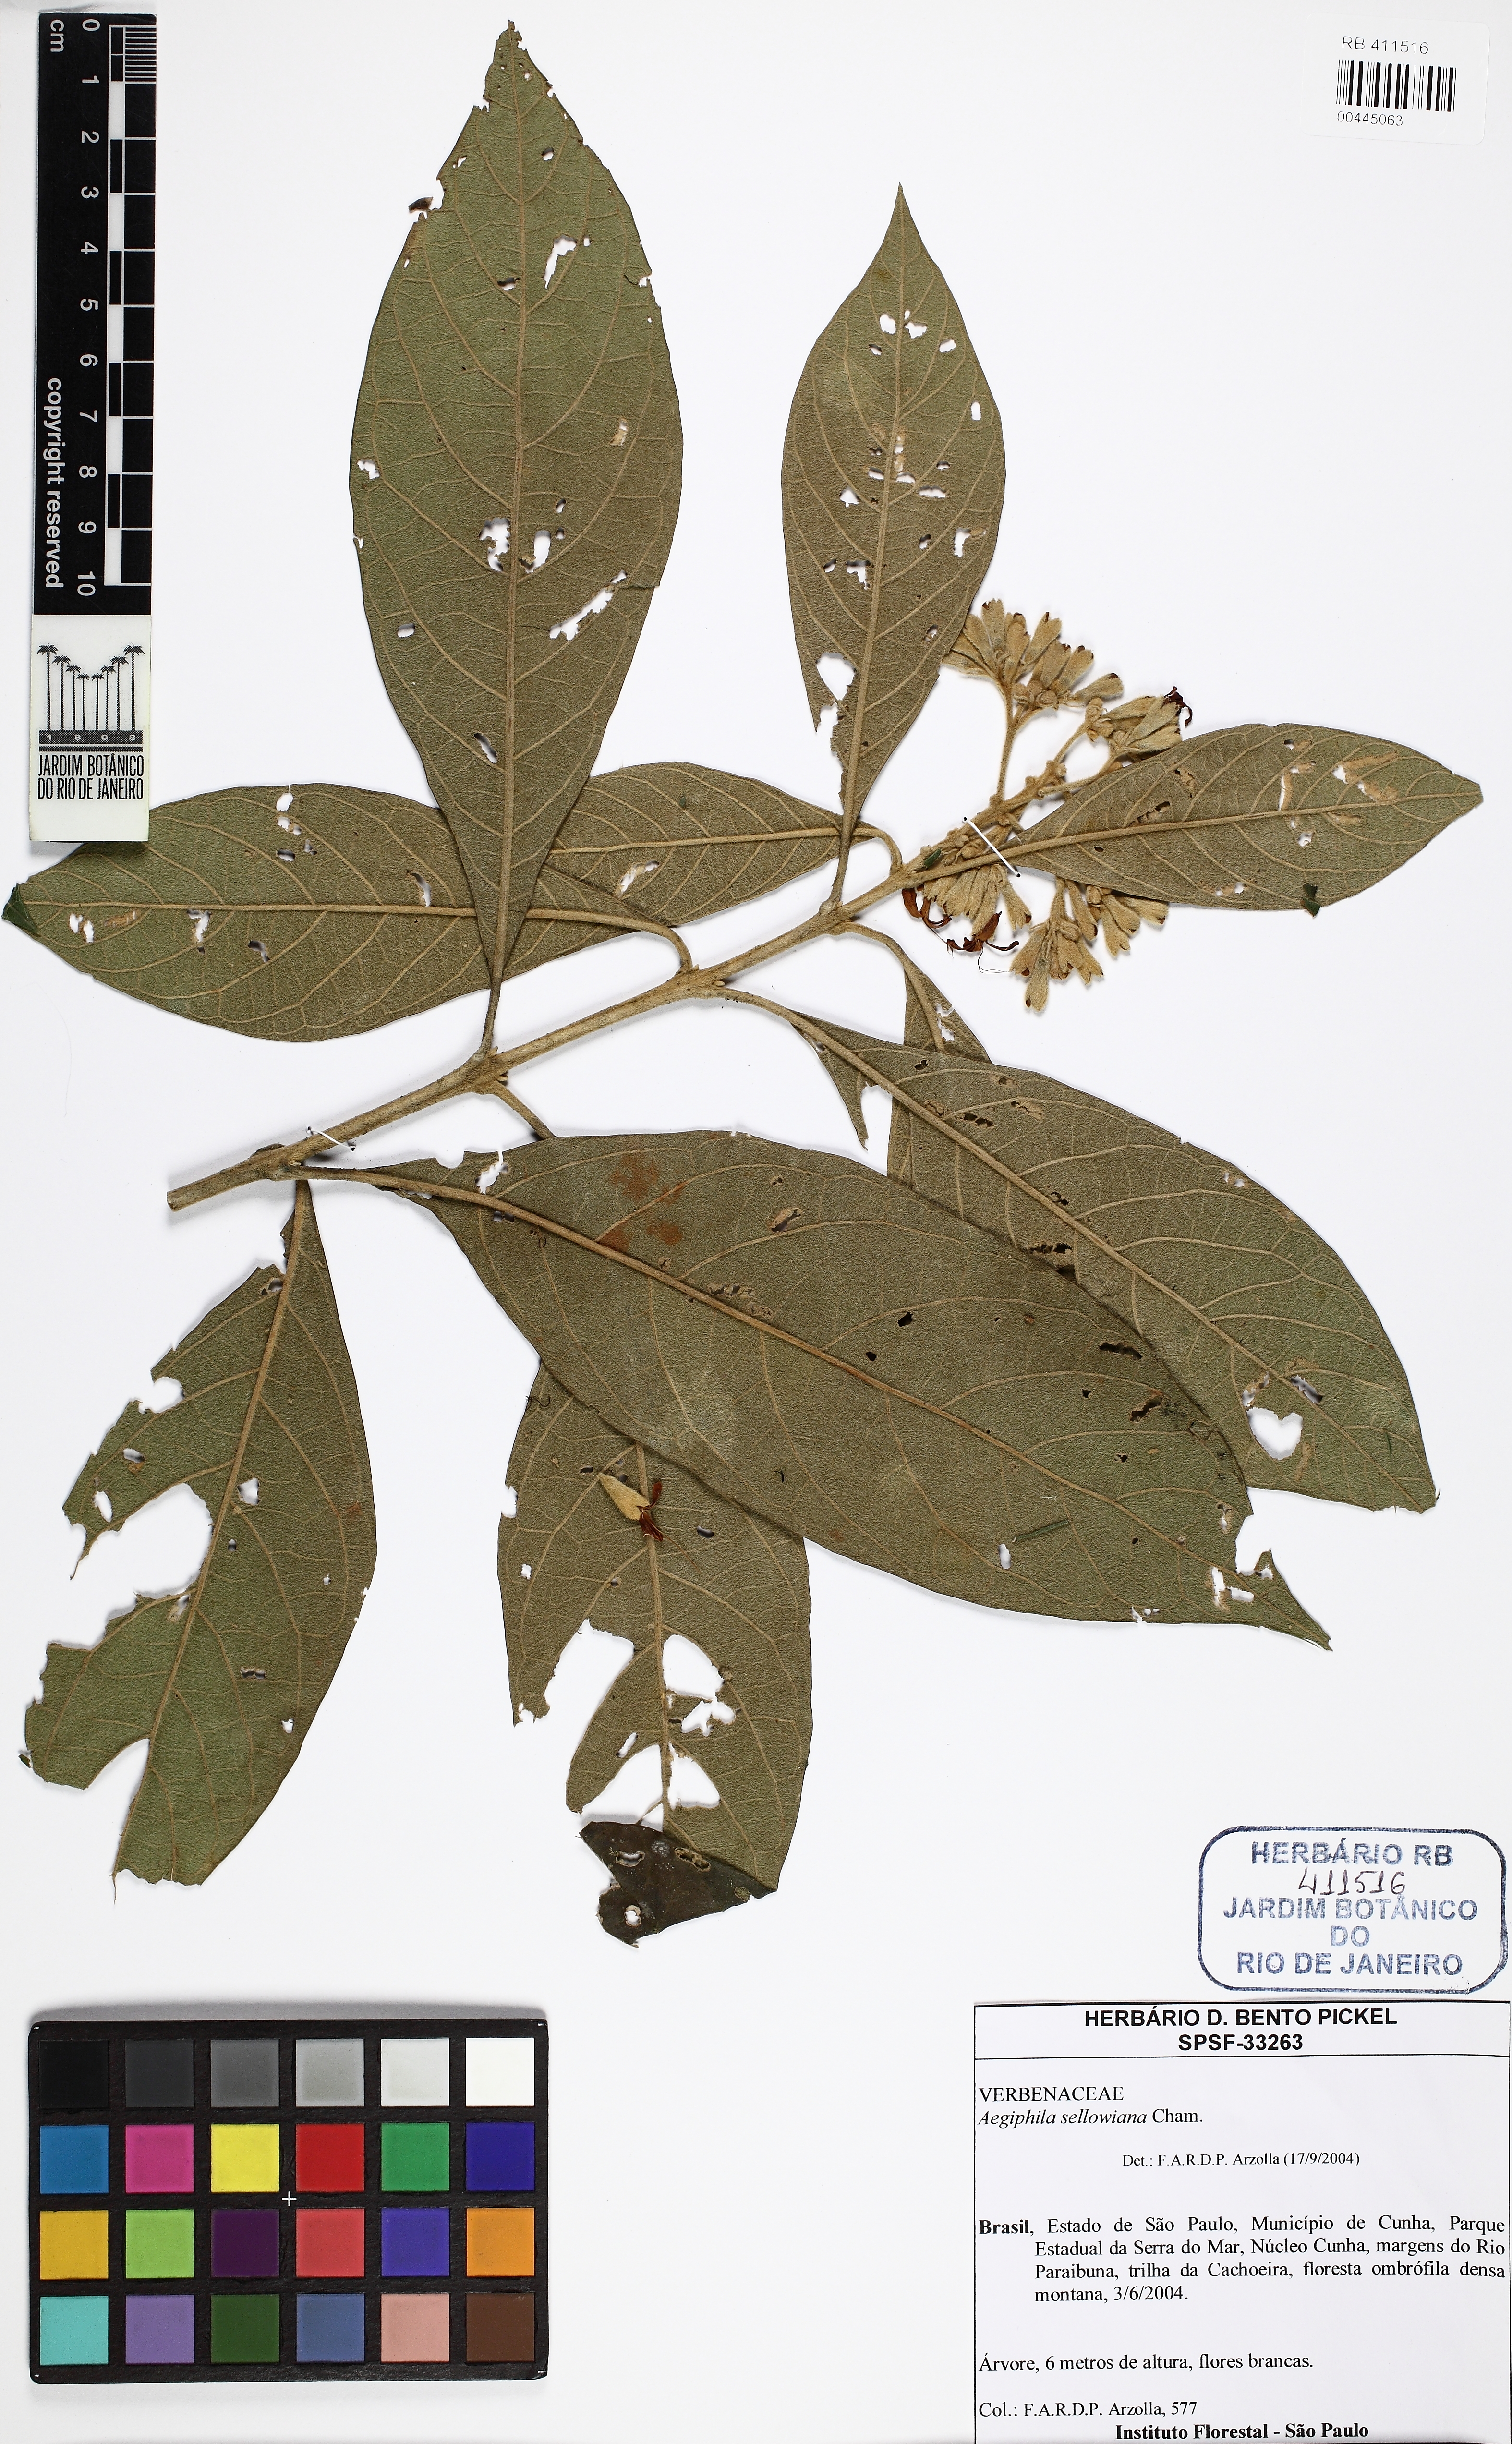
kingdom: Plantae
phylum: Tracheophyta
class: Magnoliopsida
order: Lamiales
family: Lamiaceae
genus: Aegiphila
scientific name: Aegiphila verticillata
